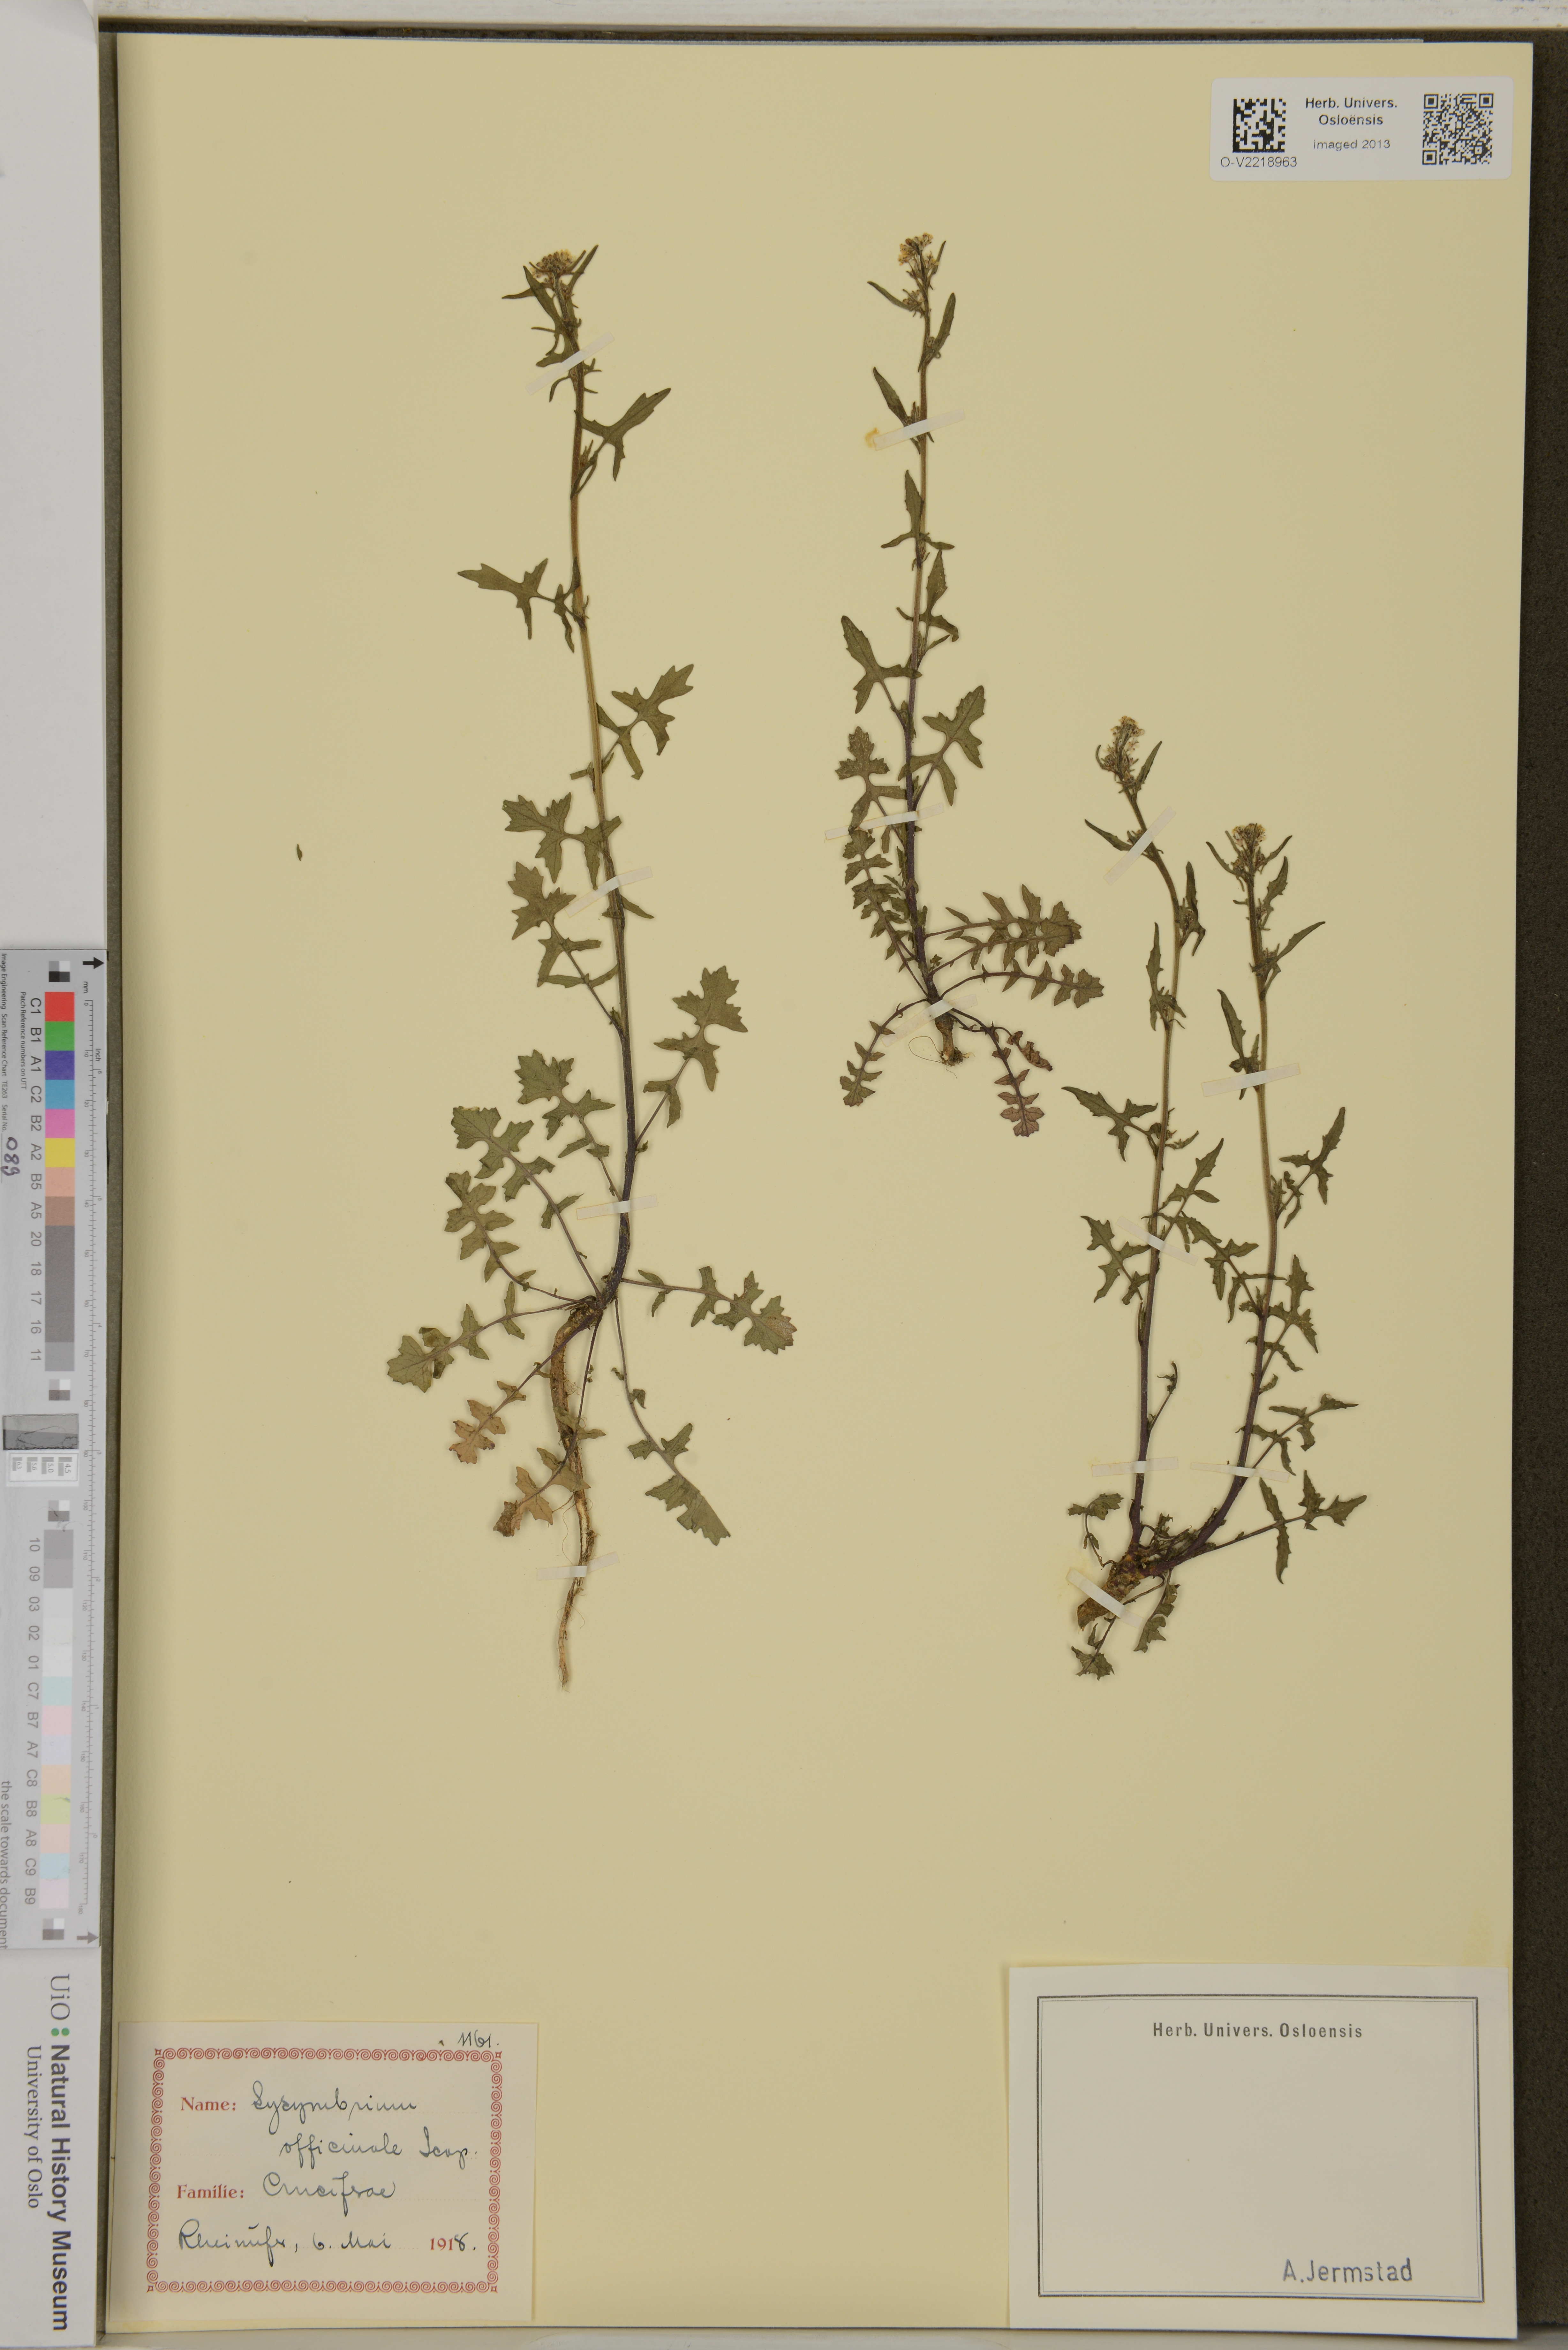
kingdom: Plantae
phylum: Tracheophyta
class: Magnoliopsida
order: Brassicales
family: Brassicaceae
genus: Sisymbrium
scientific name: Sisymbrium officinale
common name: Hedge mustard
